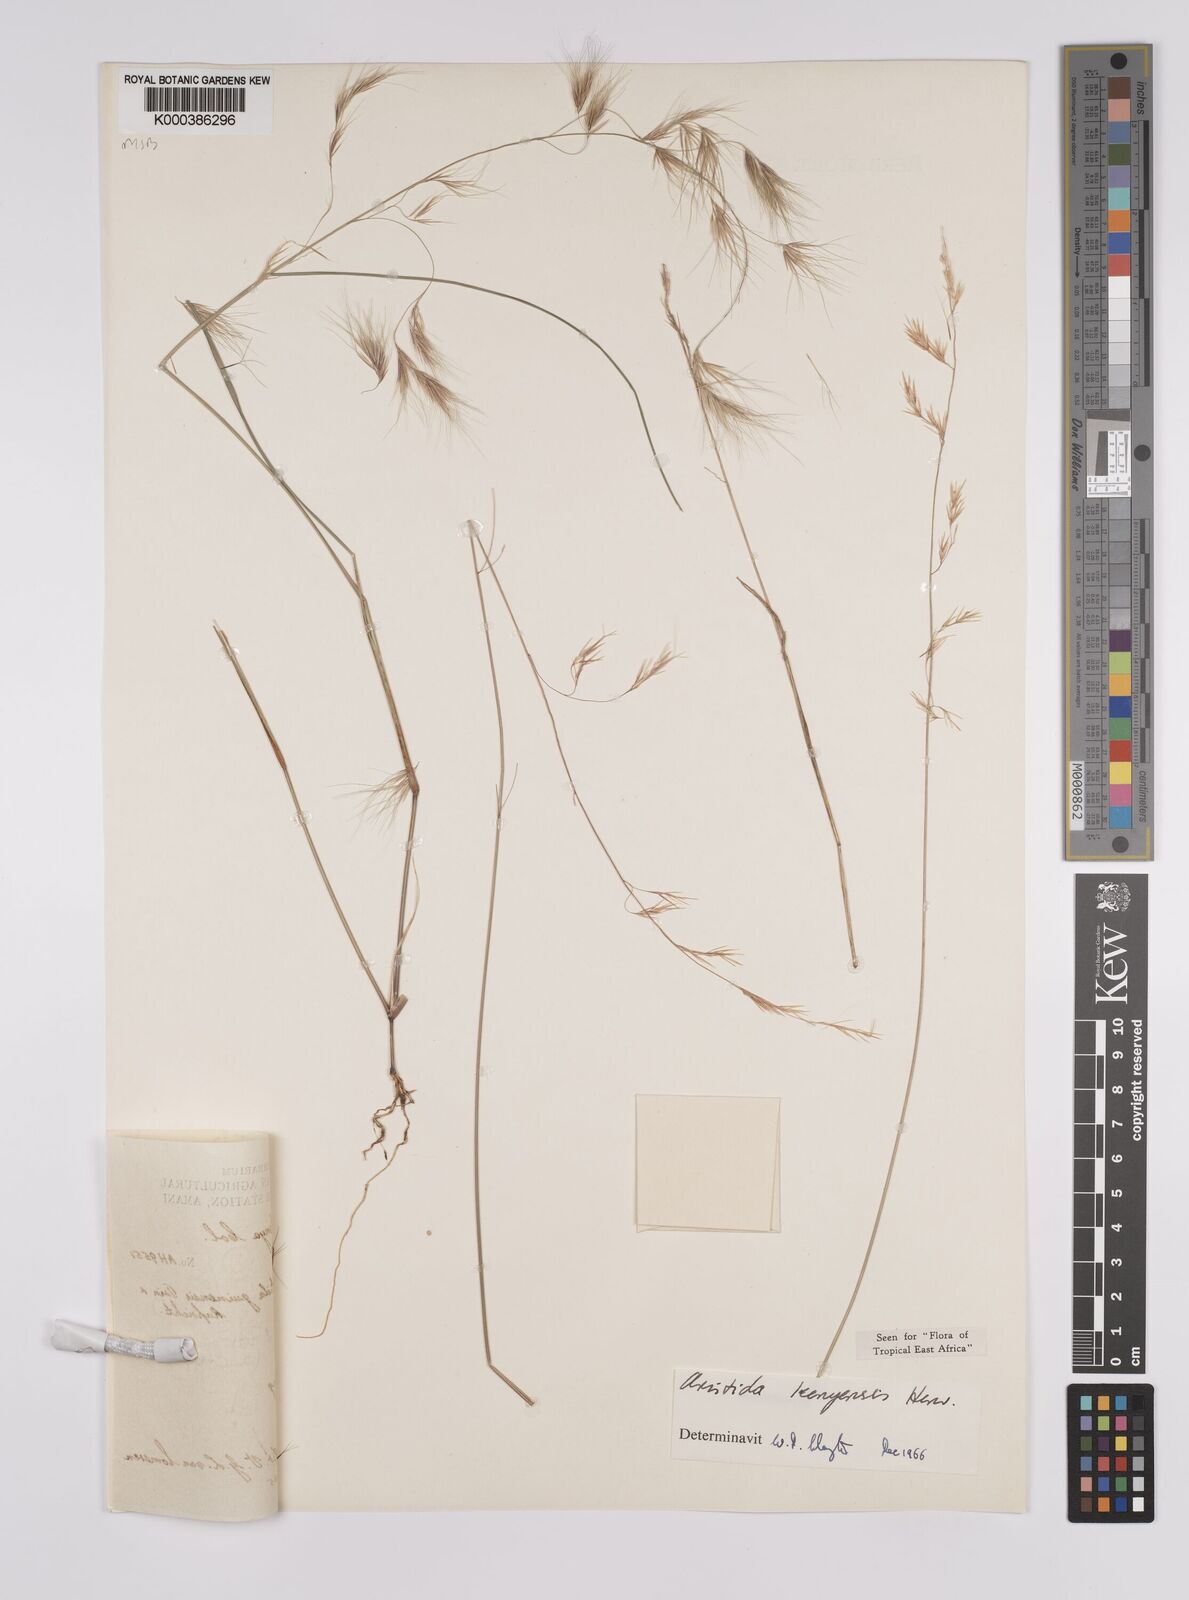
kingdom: Plantae
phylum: Tracheophyta
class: Liliopsida
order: Poales
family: Poaceae
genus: Aristida
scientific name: Aristida kenyensis
